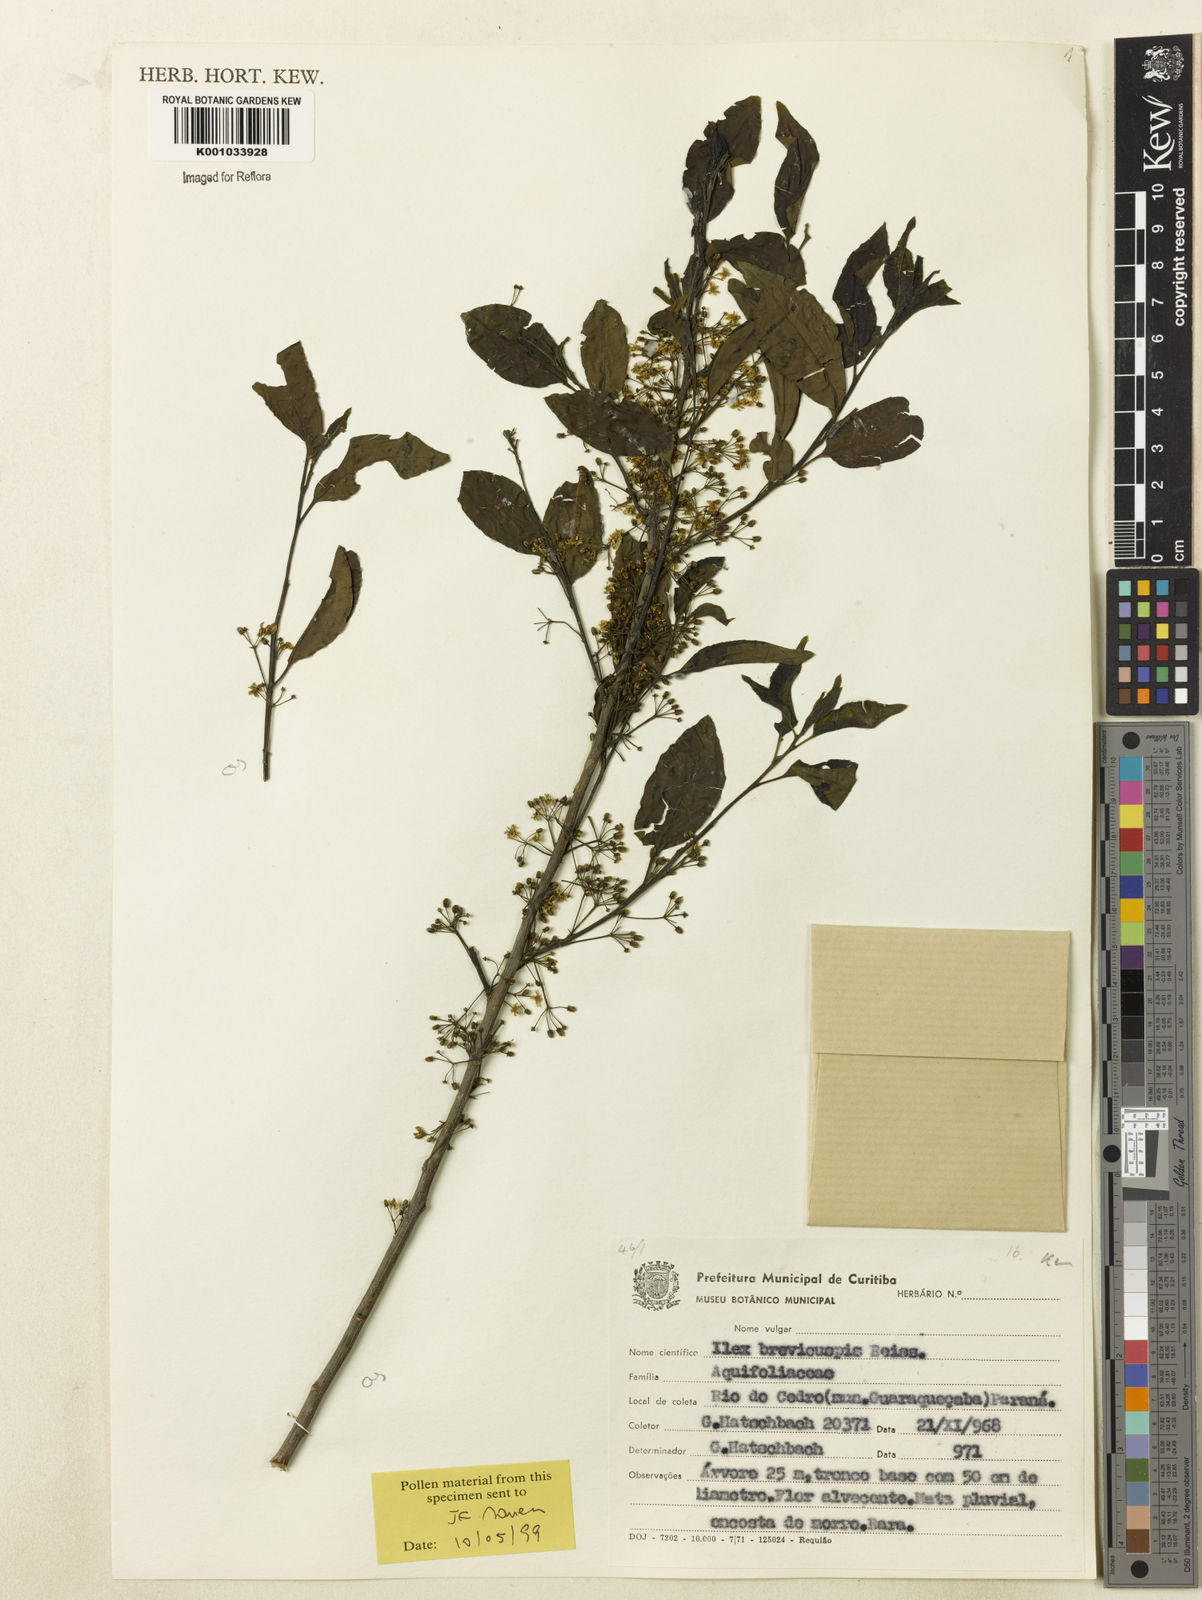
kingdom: Plantae
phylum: Tracheophyta
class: Magnoliopsida
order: Aquifoliales
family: Aquifoliaceae
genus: Ilex
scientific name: Ilex brevicuspis
